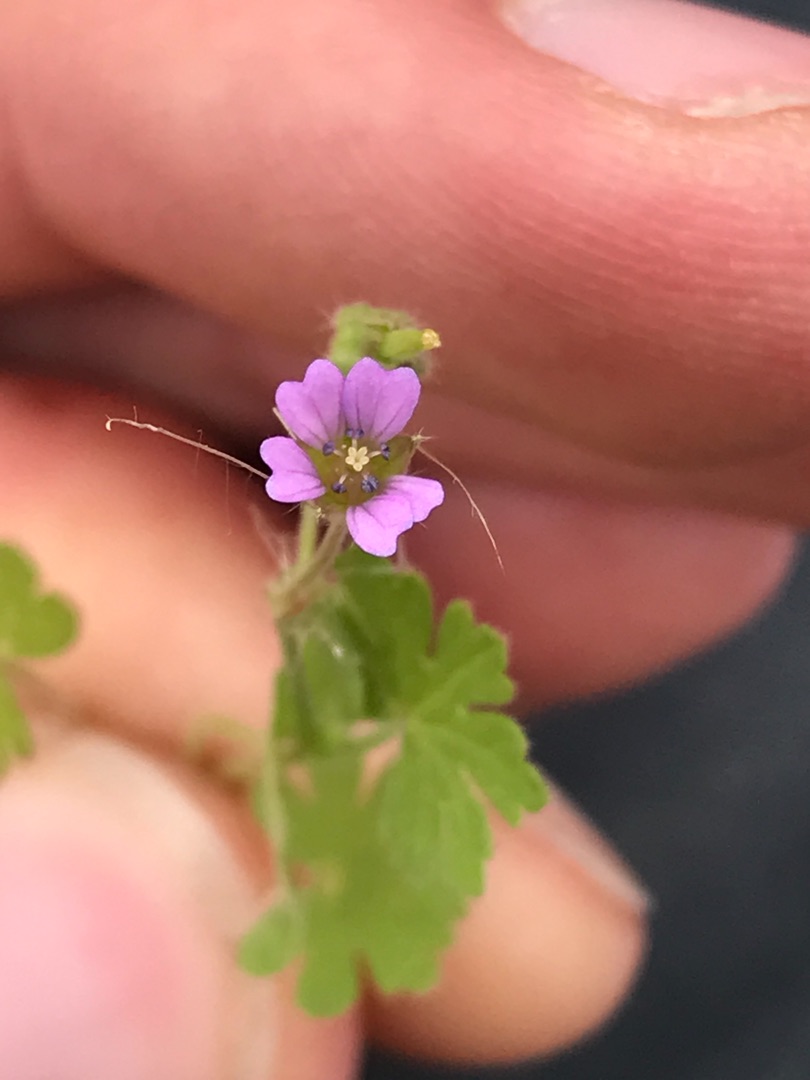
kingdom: Plantae
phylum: Tracheophyta
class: Magnoliopsida
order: Geraniales
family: Geraniaceae
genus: Geranium
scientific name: Geranium pusillum
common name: Liden storkenæb
